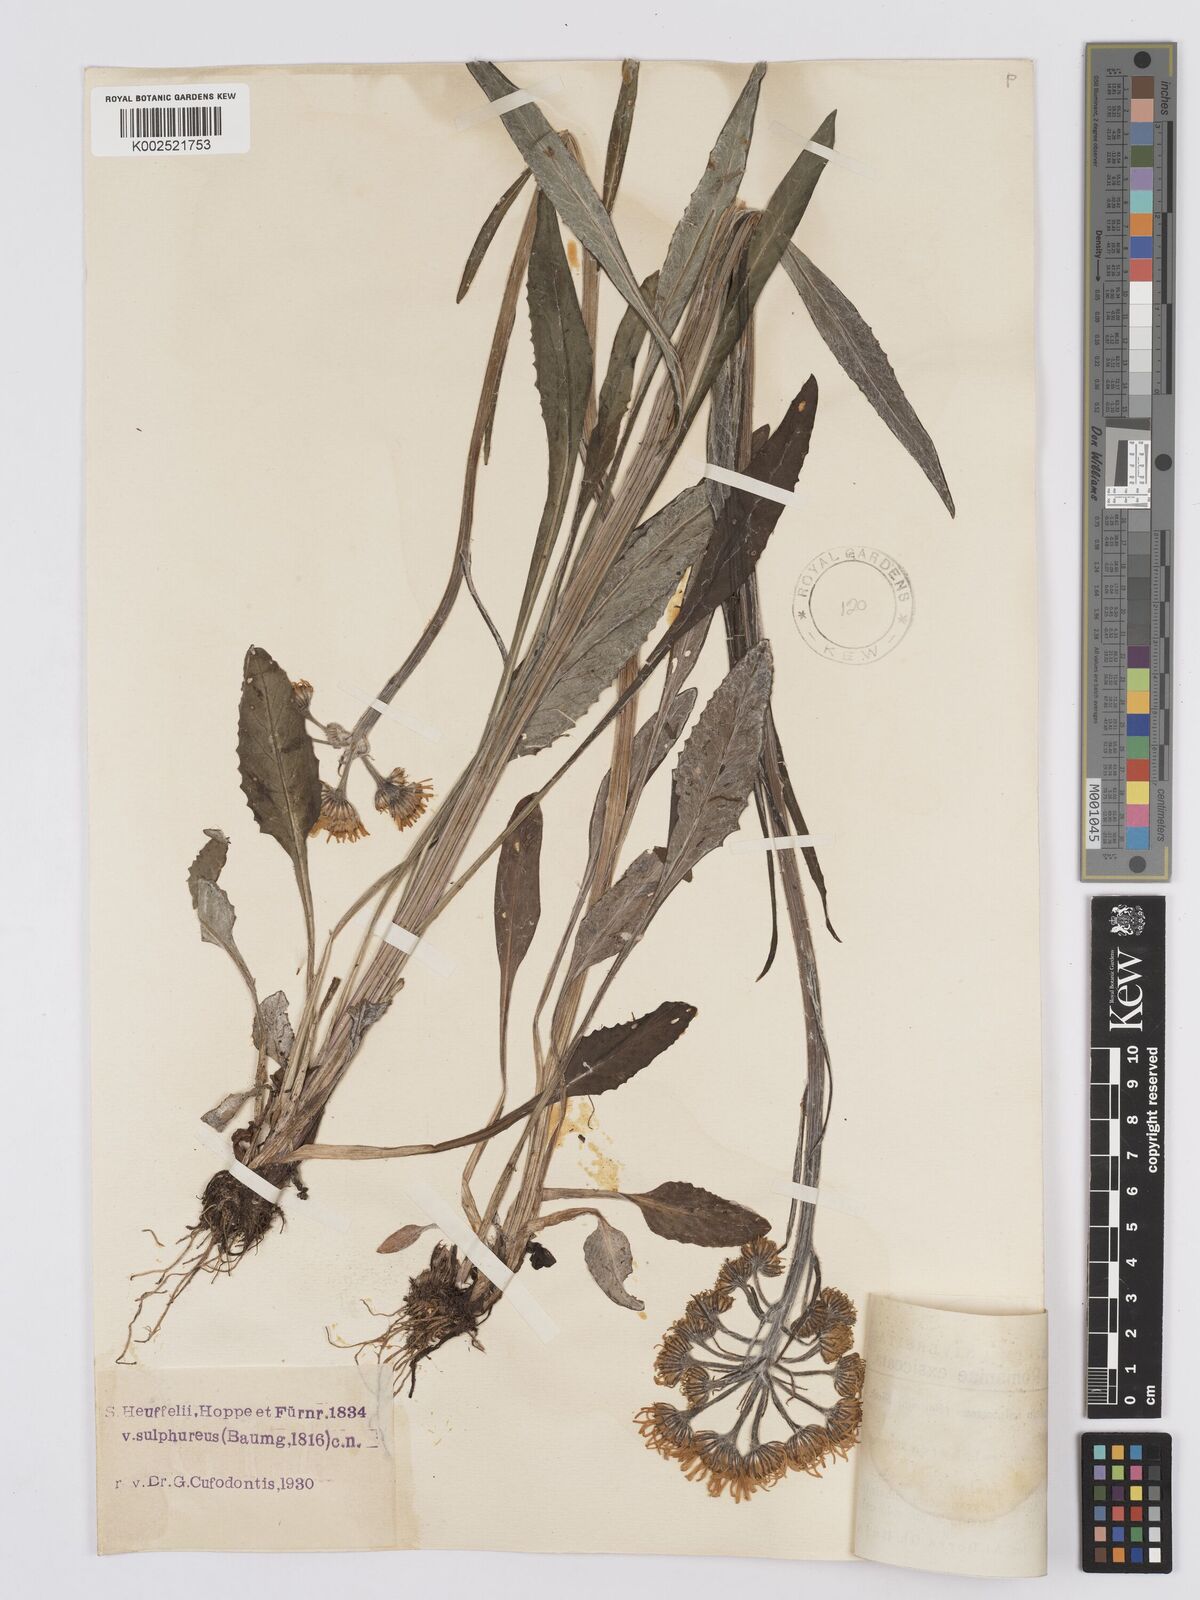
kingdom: Plantae
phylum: Tracheophyta
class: Magnoliopsida
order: Asterales
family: Asteraceae
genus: Tephroseris
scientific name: Tephroseris papposa
